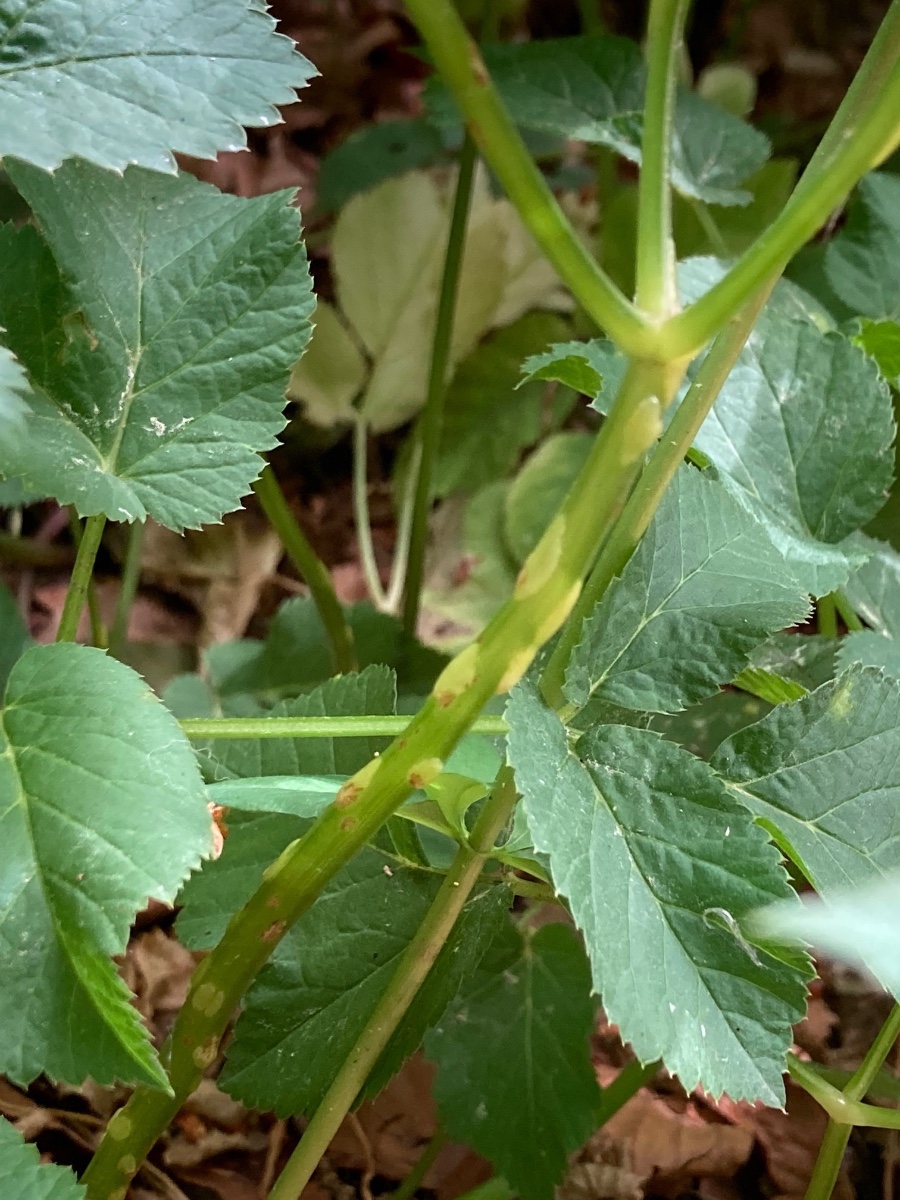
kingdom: Fungi
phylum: Ascomycota
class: Taphrinomycetes
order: Taphrinales
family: Taphrinaceae
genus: Protomyces
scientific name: Protomyces macrosporus
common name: skvalderkål-vablesæk
